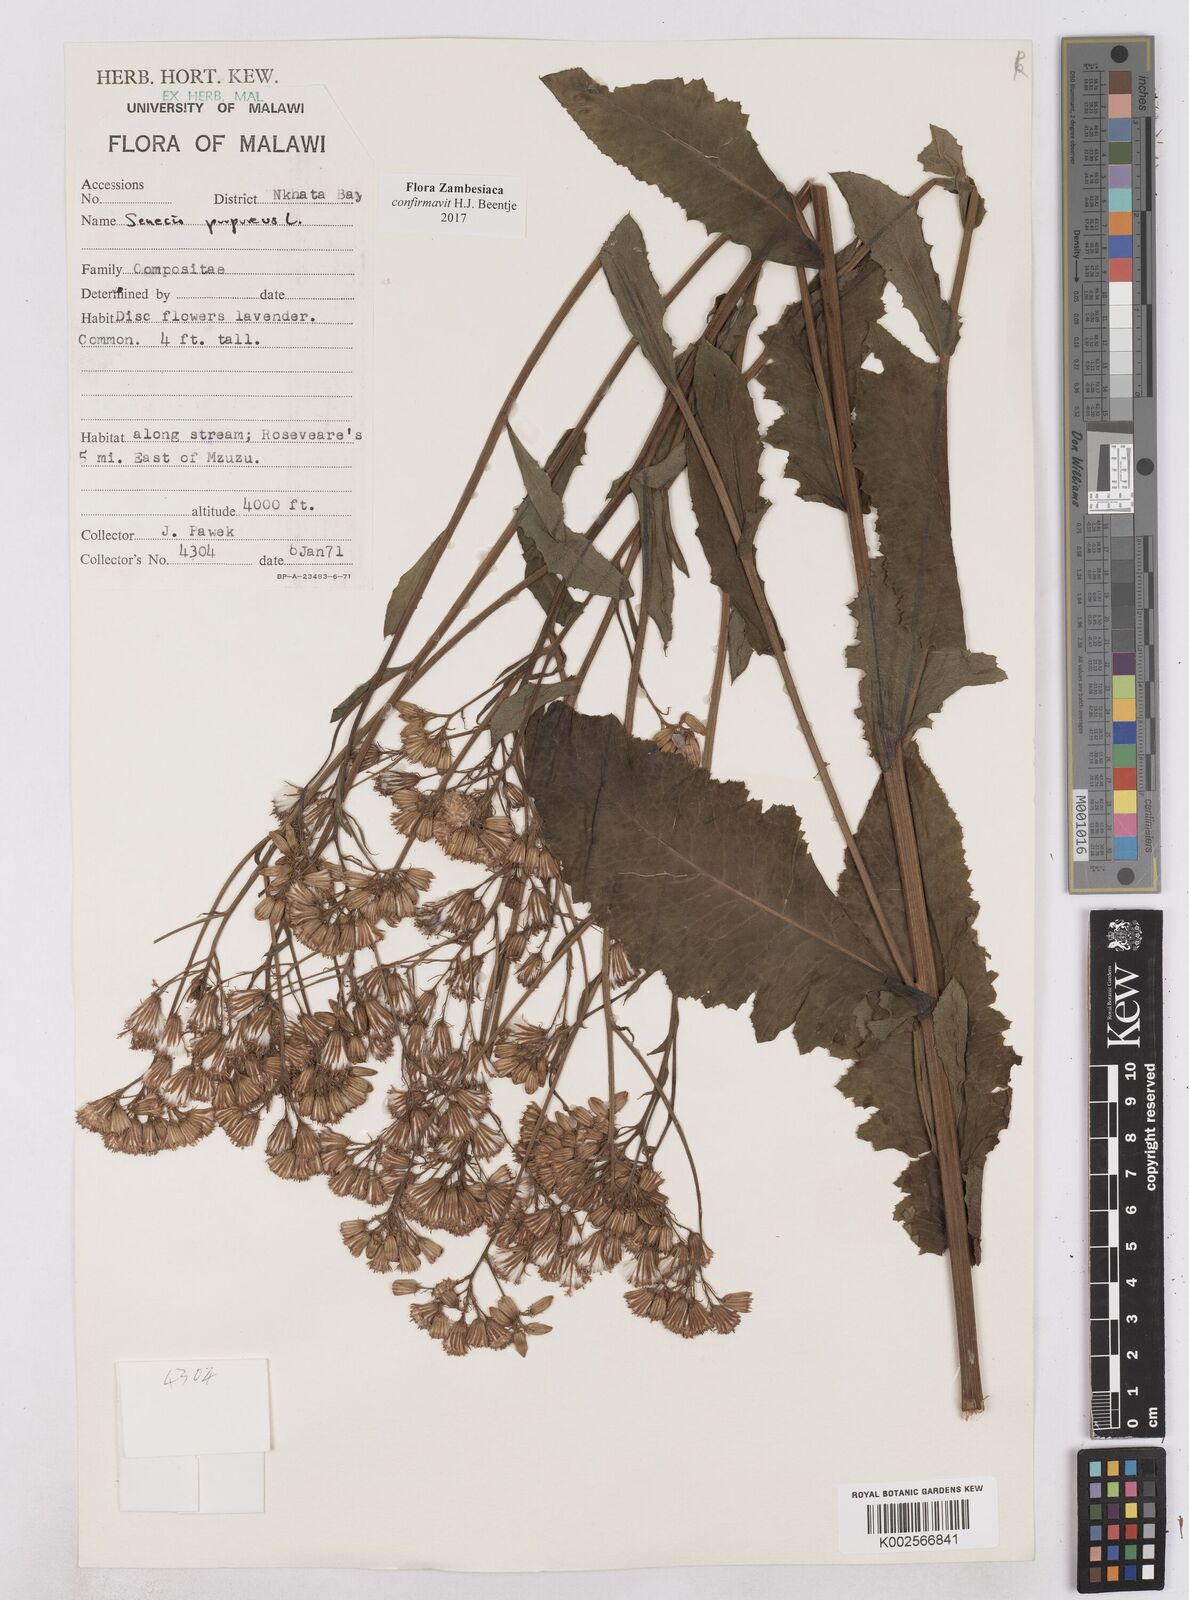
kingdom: Plantae
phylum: Tracheophyta
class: Magnoliopsida
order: Asterales
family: Asteraceae
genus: Senecio
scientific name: Senecio purpureus
